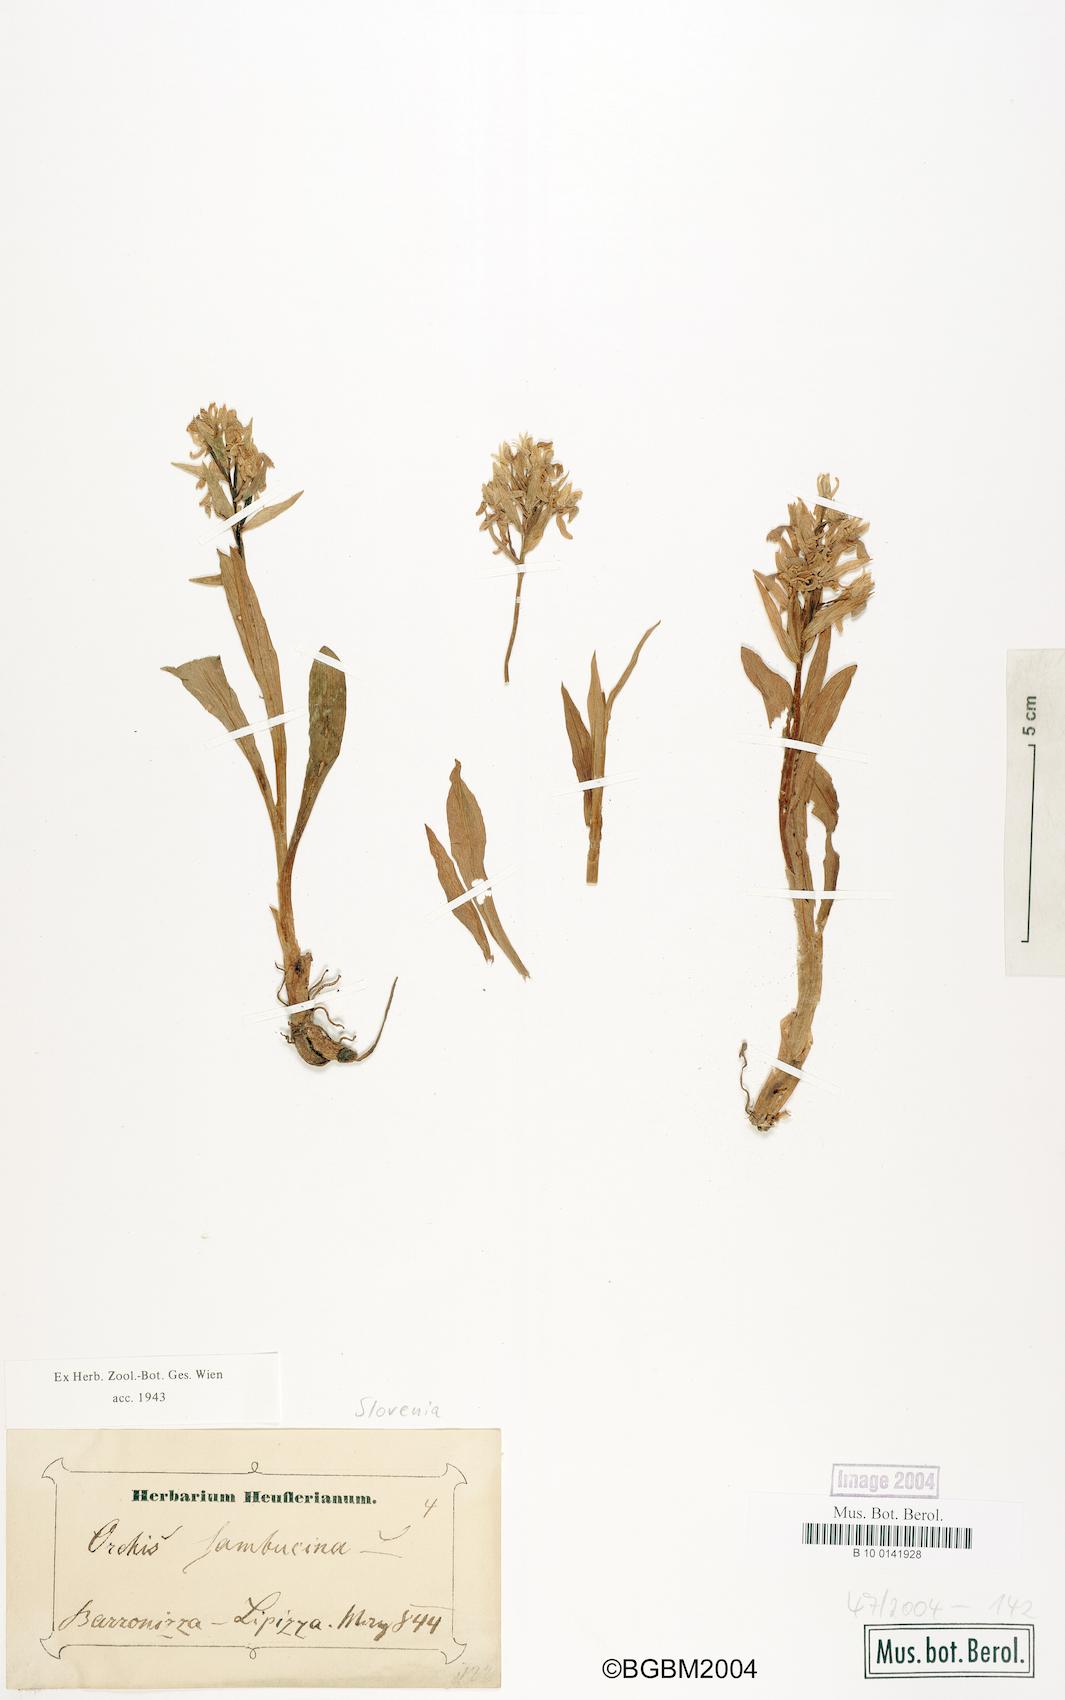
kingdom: Plantae
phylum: Tracheophyta
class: Liliopsida
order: Asparagales
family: Orchidaceae
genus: Dactylorhiza
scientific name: Dactylorhiza sambucina
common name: Elder-flowered orchid
